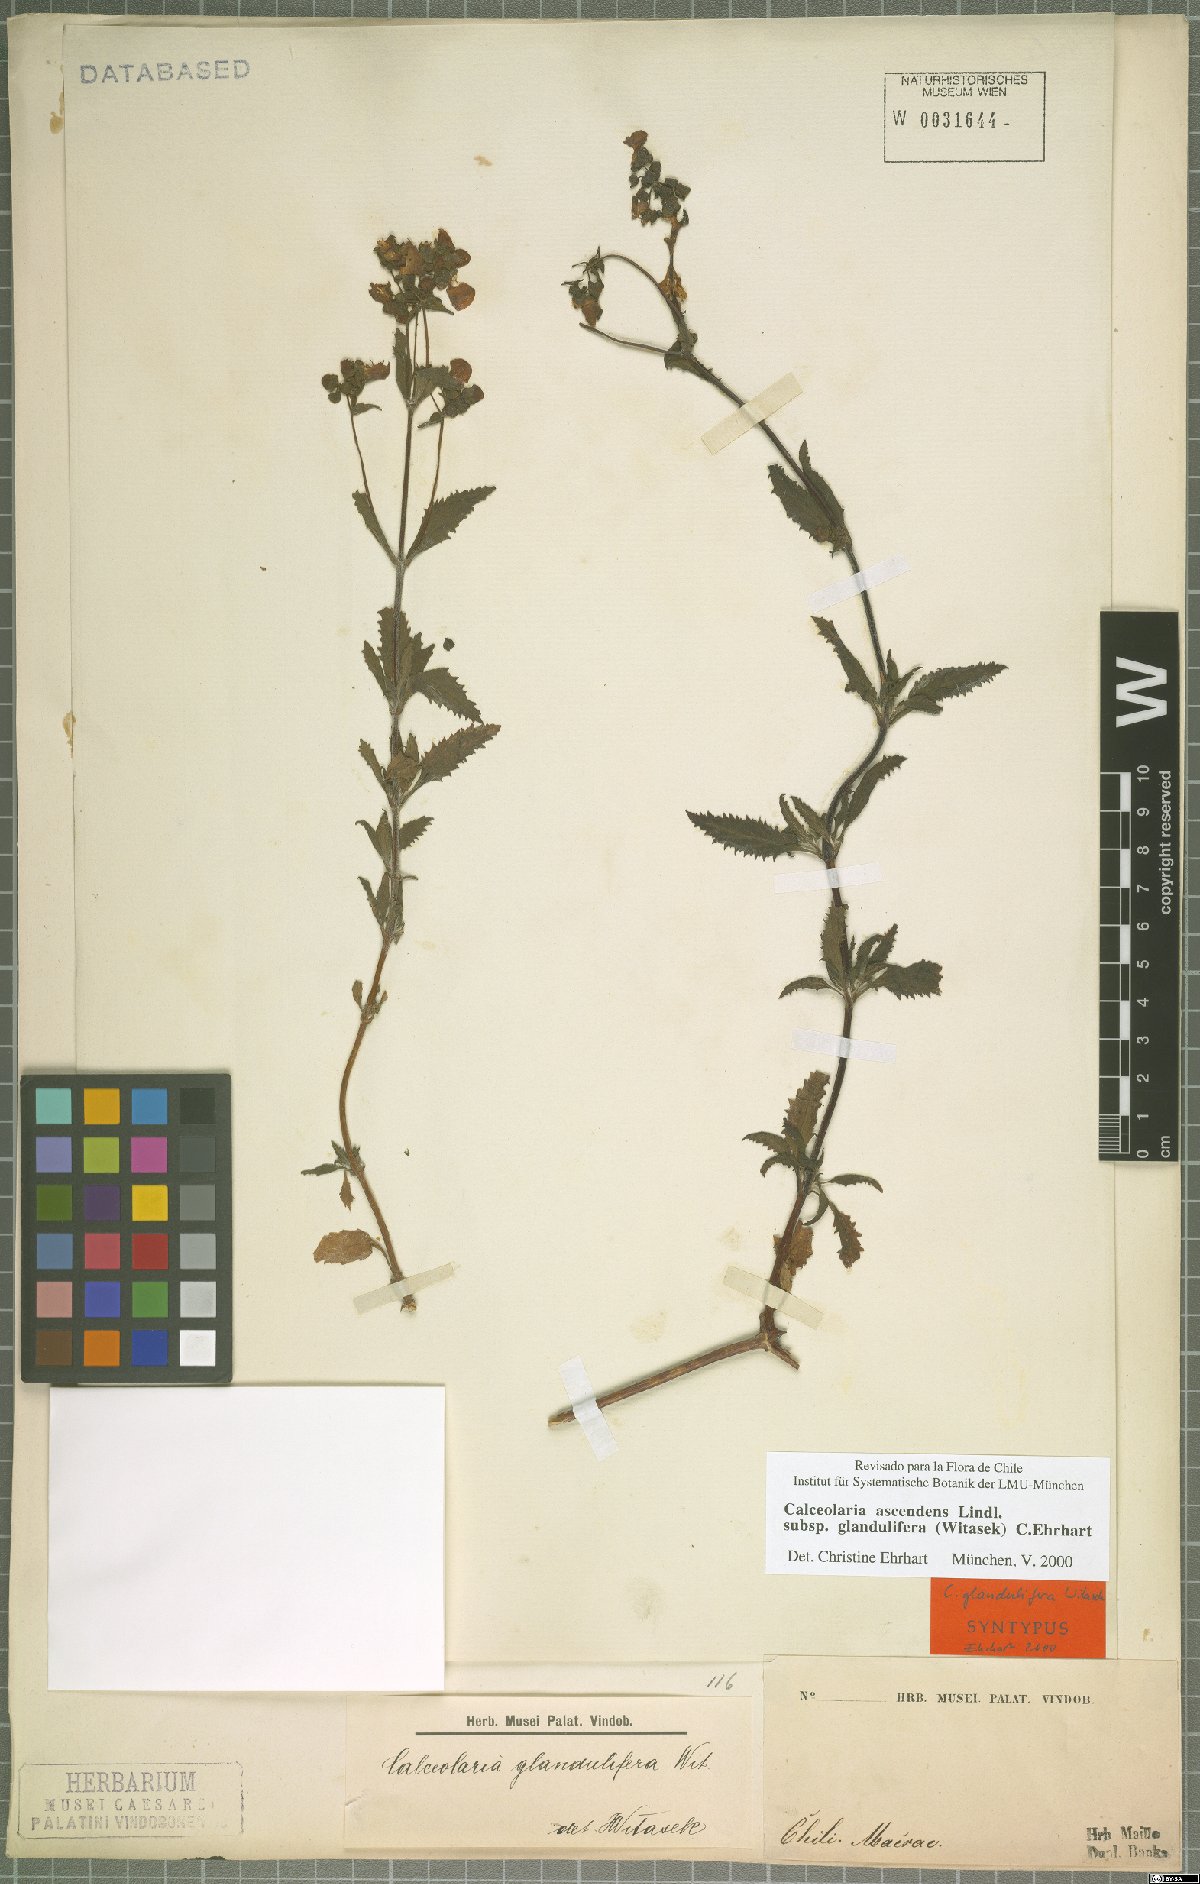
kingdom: Plantae
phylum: Tracheophyta
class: Magnoliopsida
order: Lamiales
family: Calceolariaceae
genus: Calceolaria
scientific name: Calceolaria ascendens
